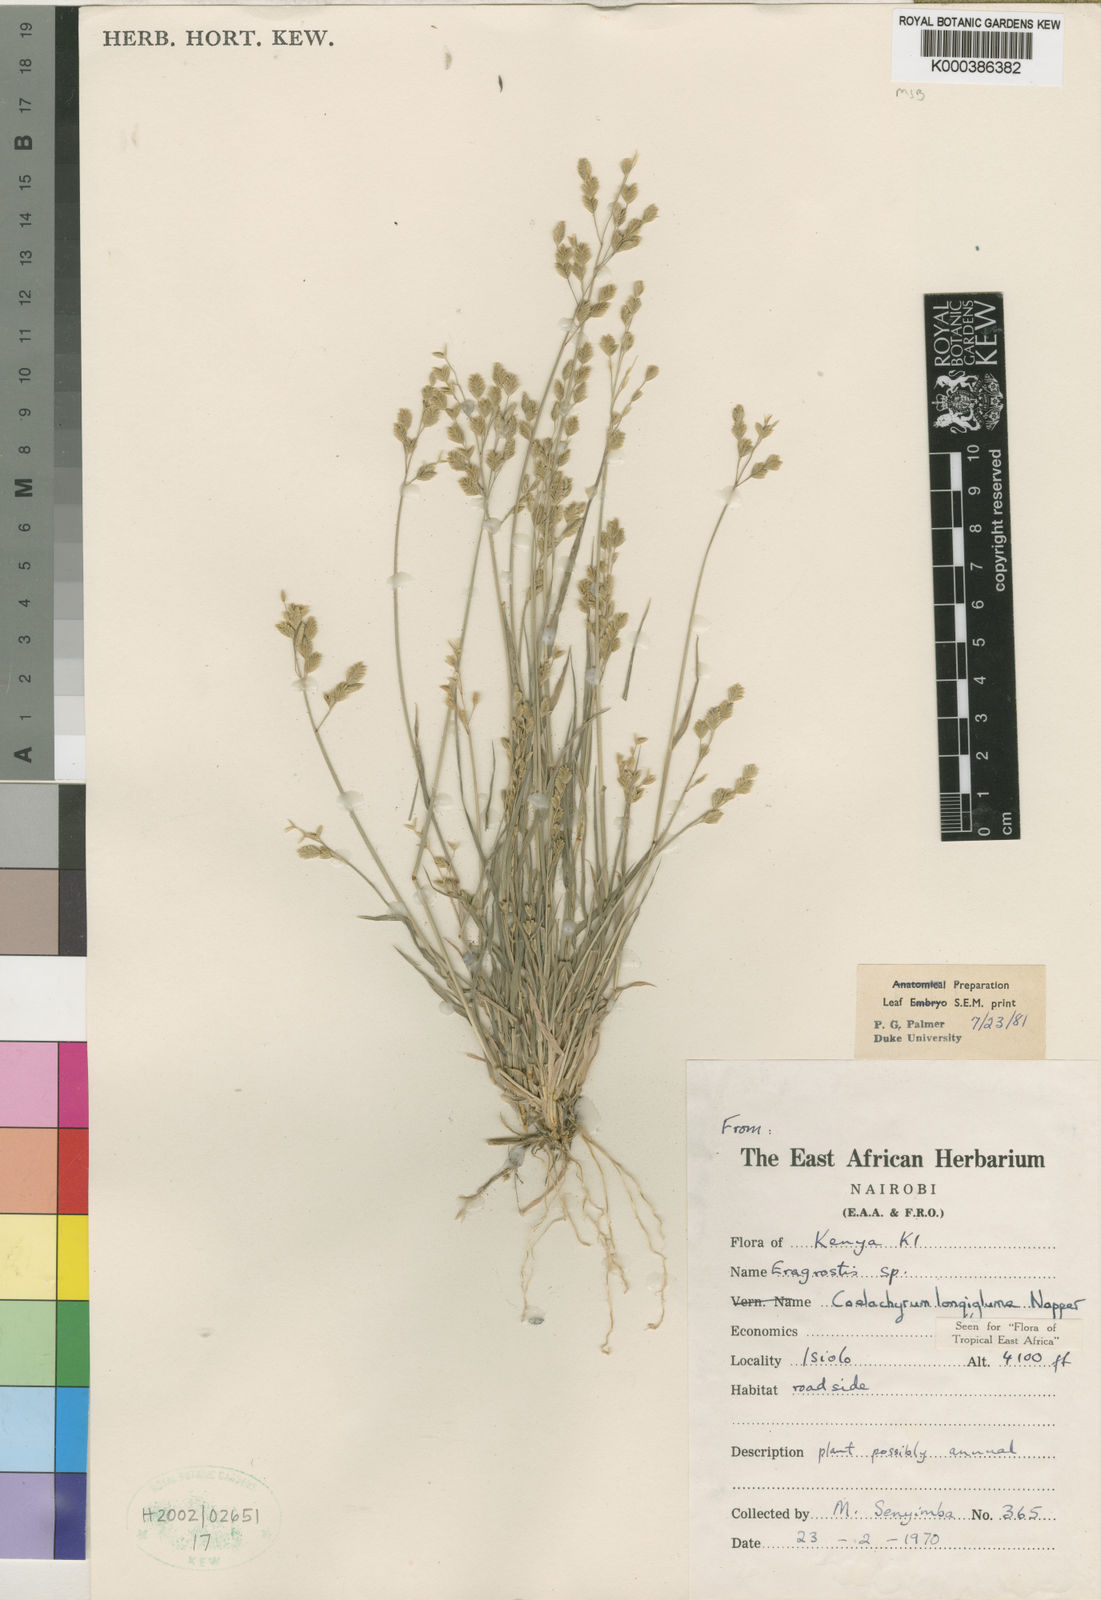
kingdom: Plantae
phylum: Tracheophyta
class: Liliopsida
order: Poales
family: Poaceae
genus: Coelachyrum
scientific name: Coelachyrum longiglume
